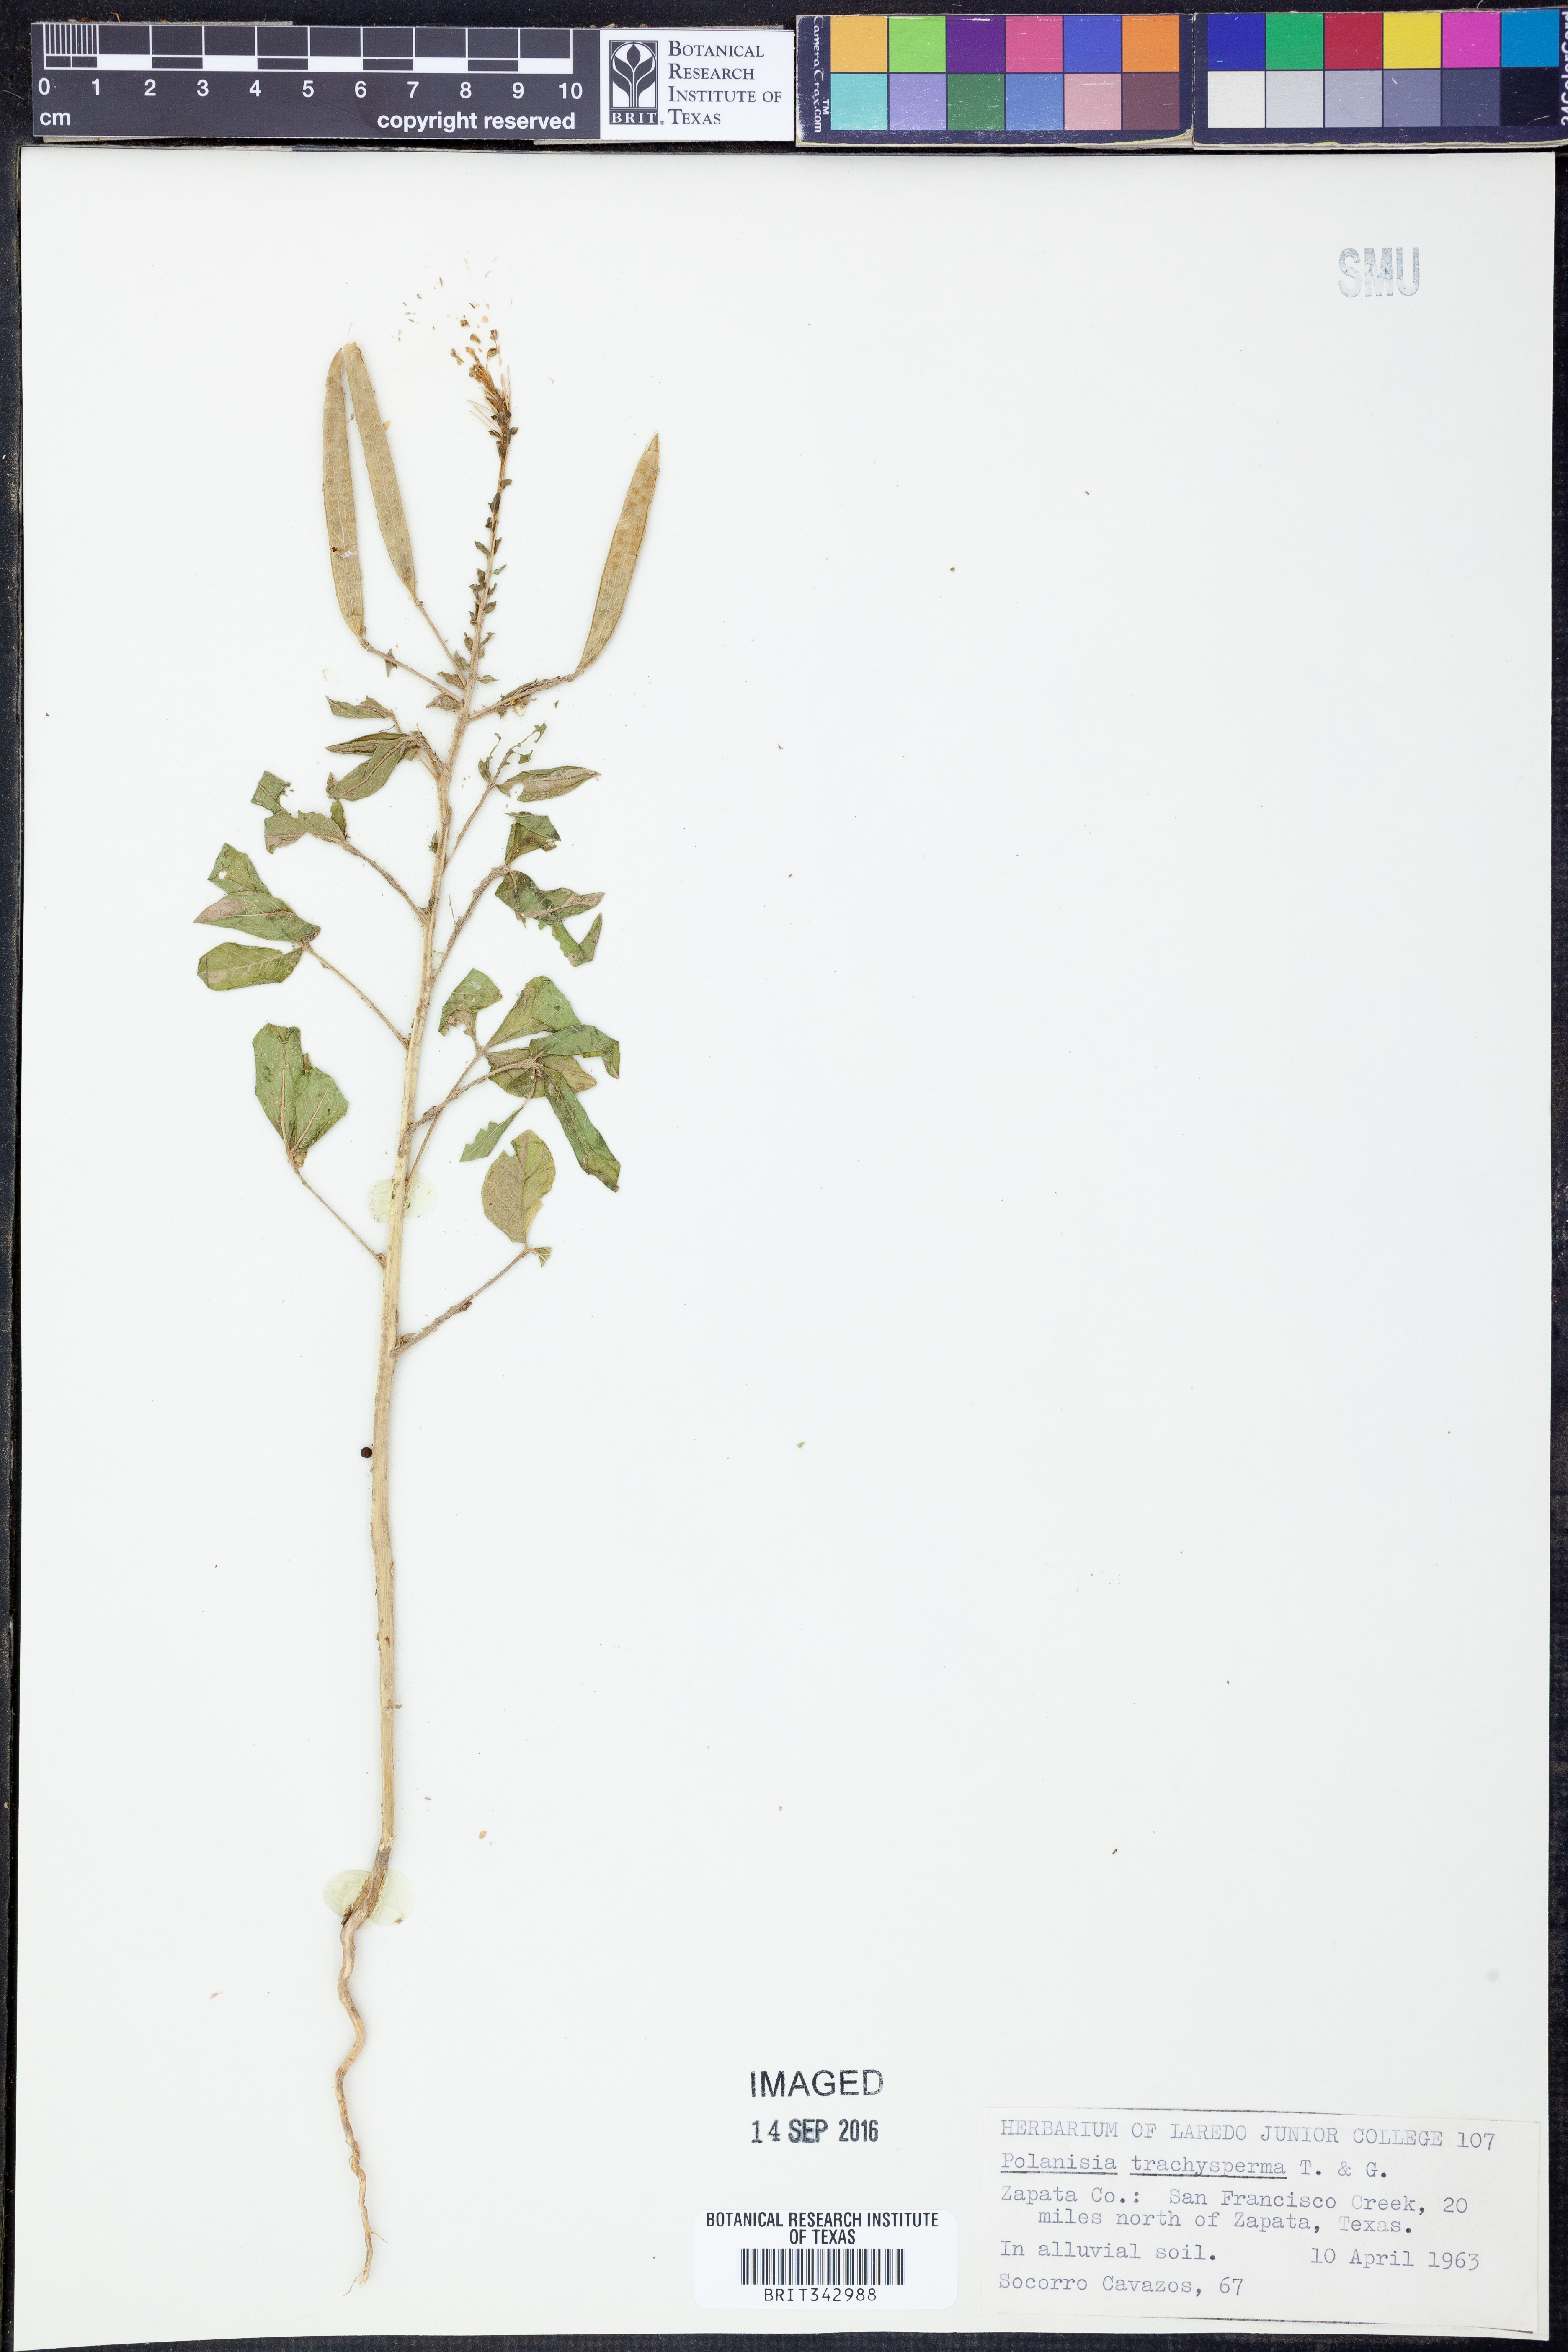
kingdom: Plantae
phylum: Tracheophyta
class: Magnoliopsida
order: Brassicales
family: Cleomaceae
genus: Polanisia
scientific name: Polanisia trachysperma
